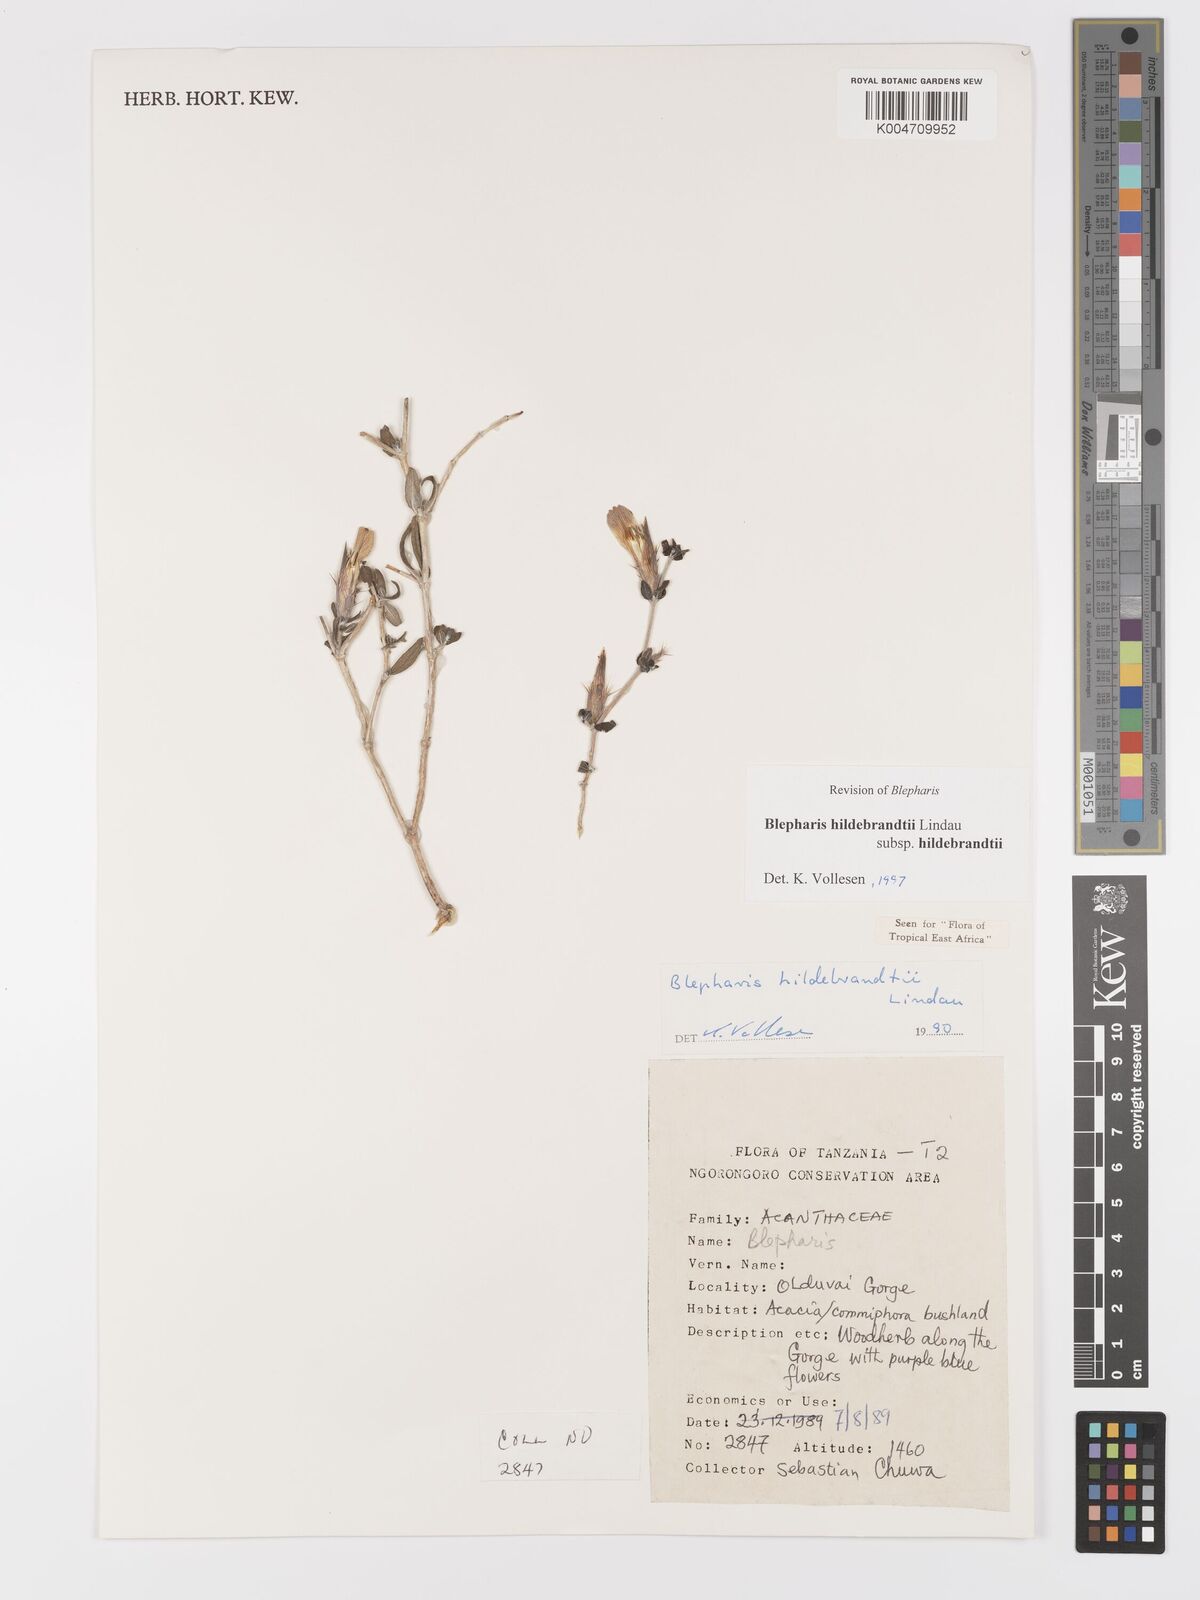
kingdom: Plantae
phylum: Tracheophyta
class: Magnoliopsida
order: Lamiales
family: Acanthaceae
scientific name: Acanthaceae
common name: Acanthaceae
